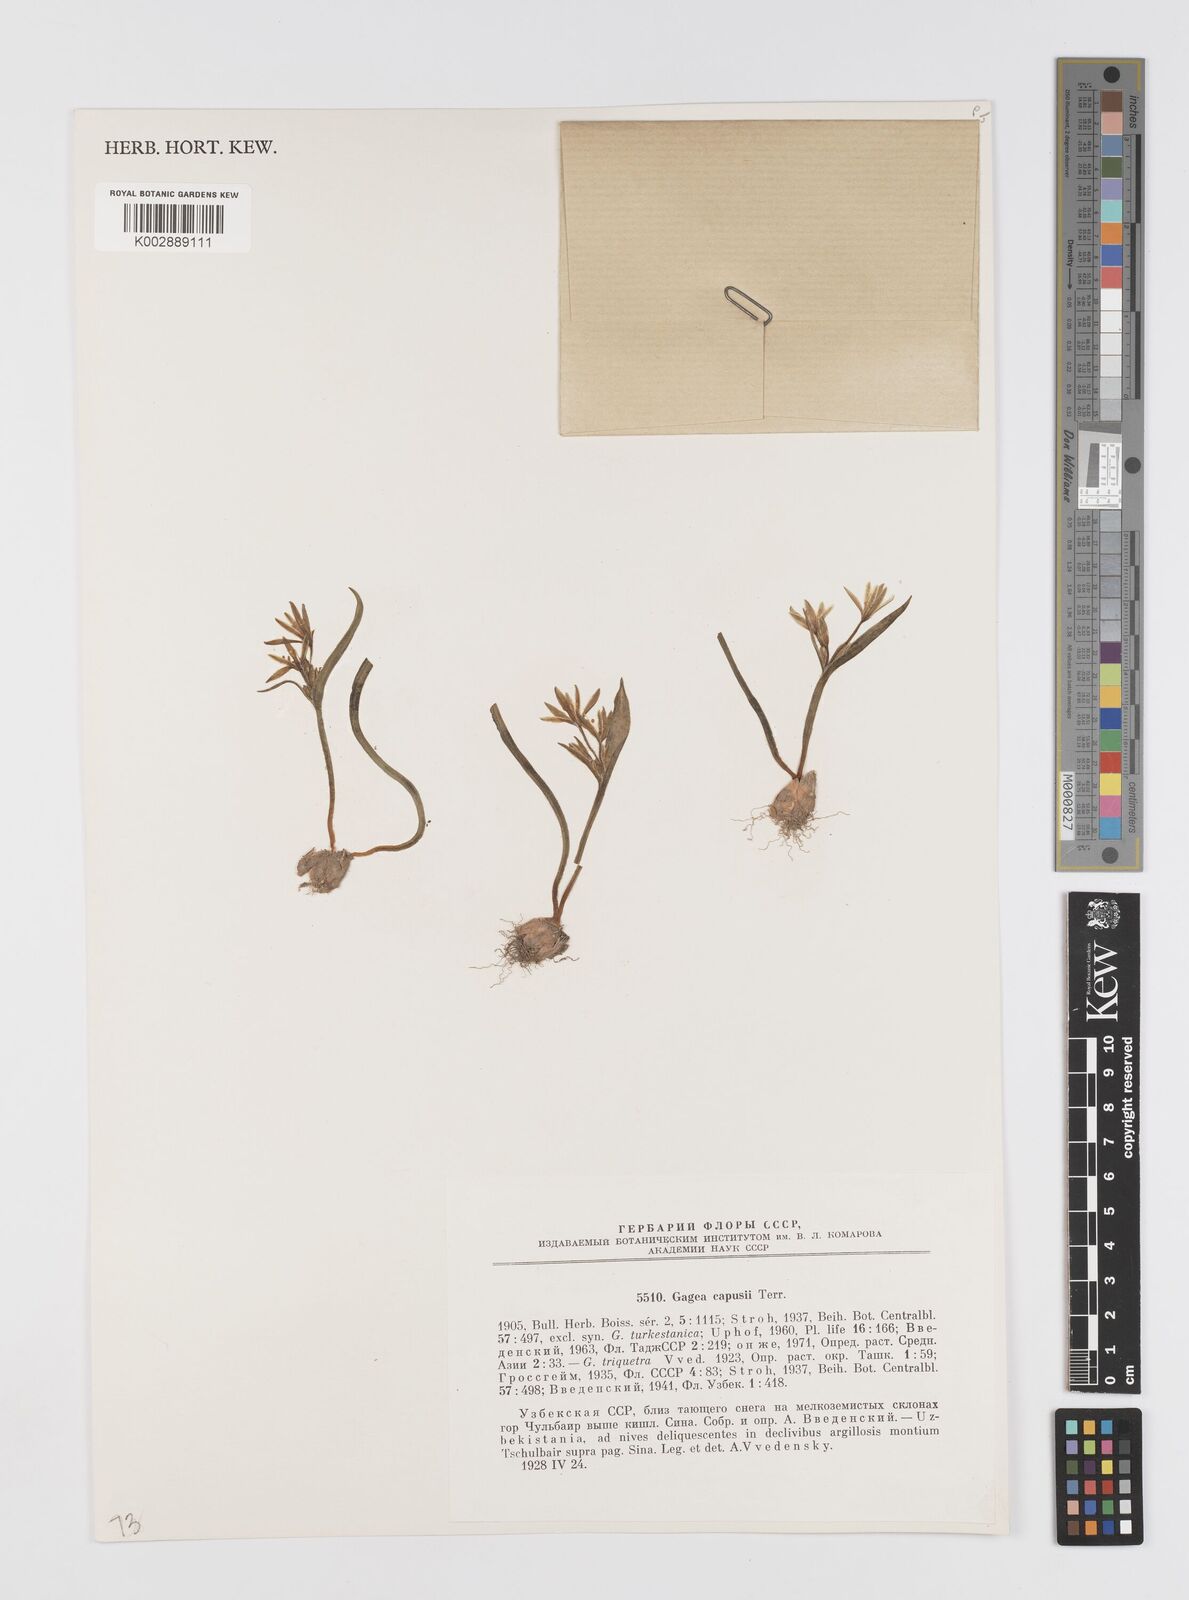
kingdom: Plantae
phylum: Tracheophyta
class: Liliopsida
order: Liliales
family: Liliaceae
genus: Gagea
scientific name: Gagea capusii
